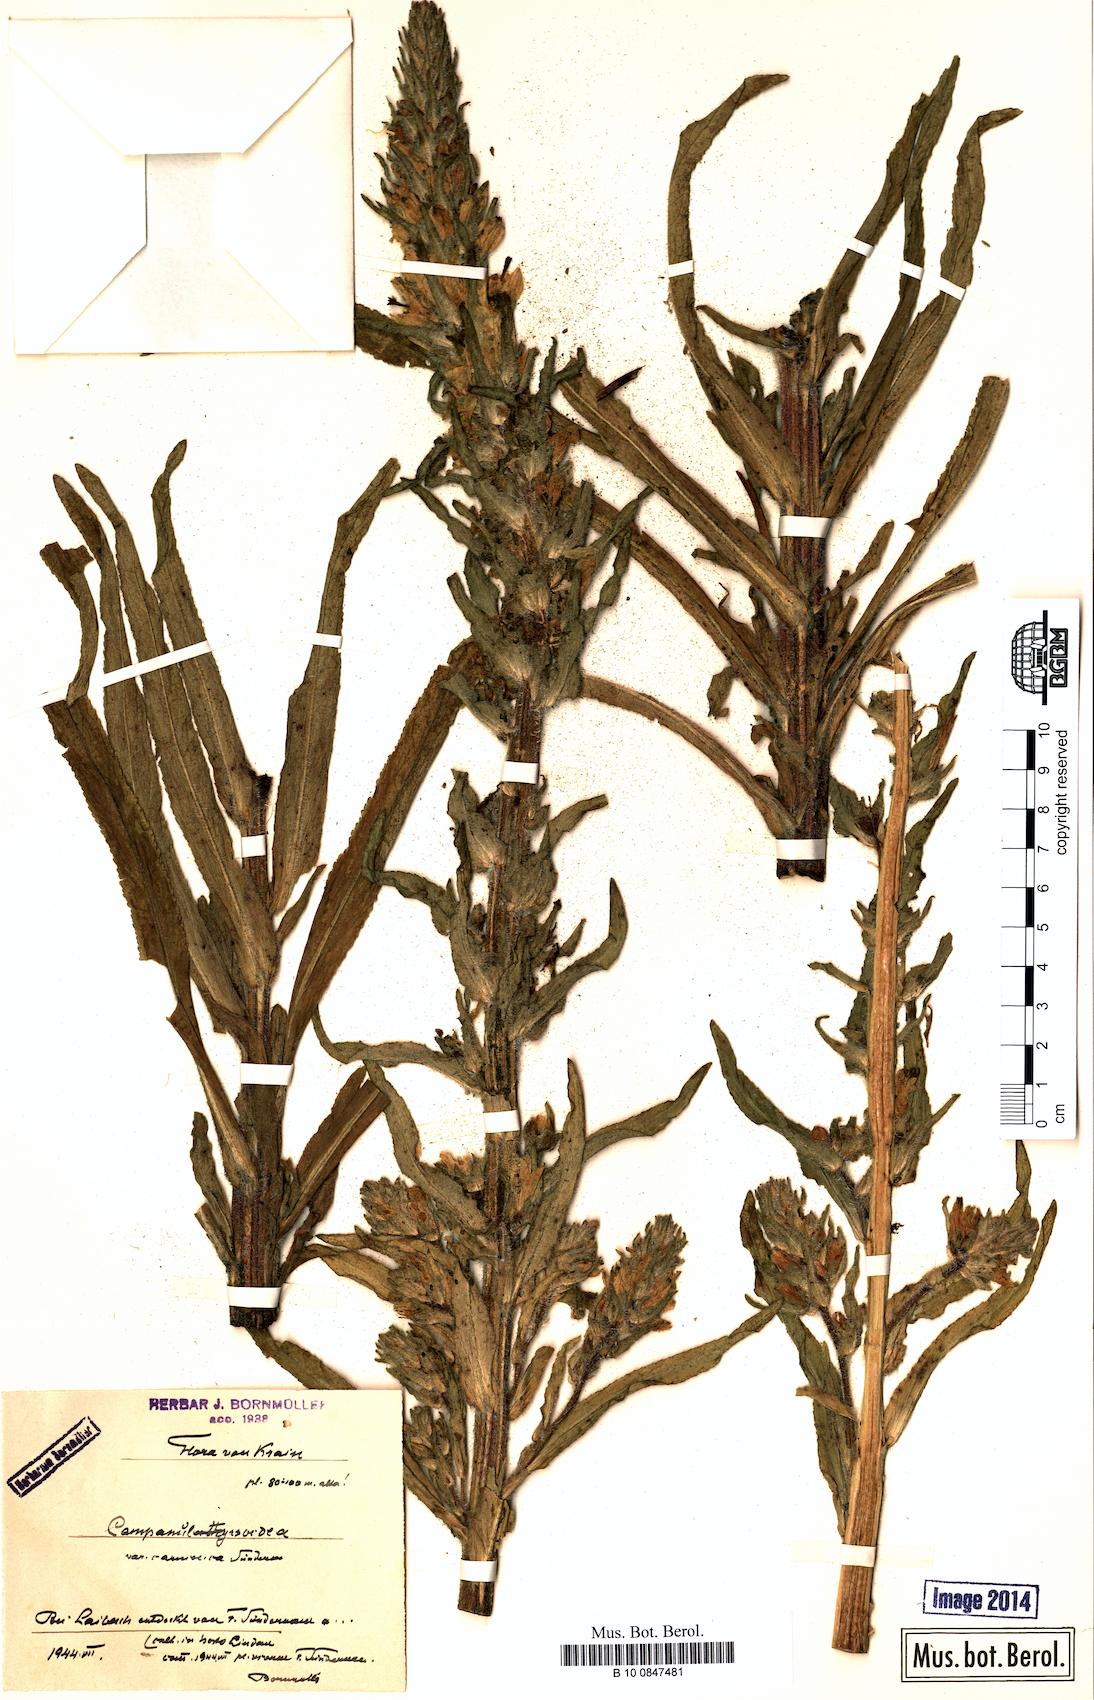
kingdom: Plantae
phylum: Tracheophyta
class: Magnoliopsida
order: Asterales
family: Campanulaceae
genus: Campanula
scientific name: Campanula thyrsoides
